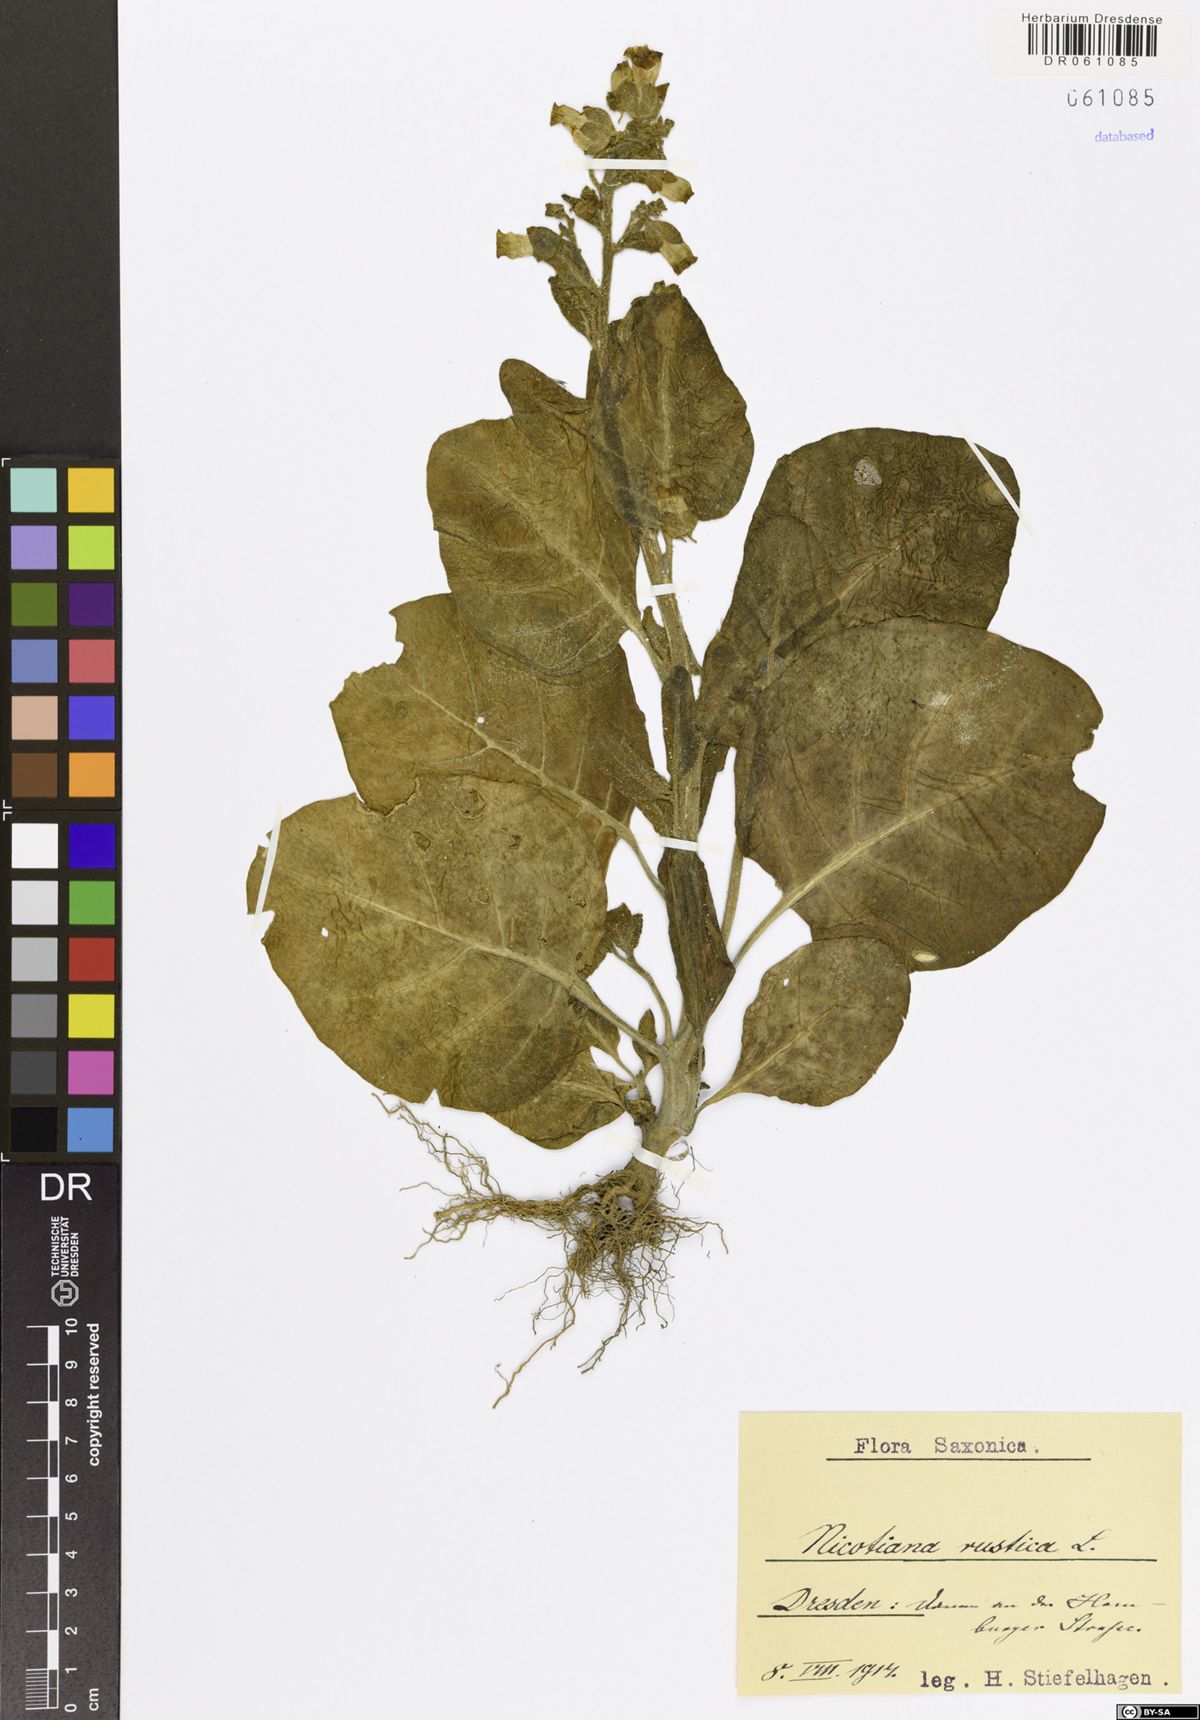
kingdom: Plantae
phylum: Tracheophyta
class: Magnoliopsida
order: Solanales
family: Solanaceae
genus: Nicotiana
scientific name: Nicotiana rustica
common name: Wild tobacco
